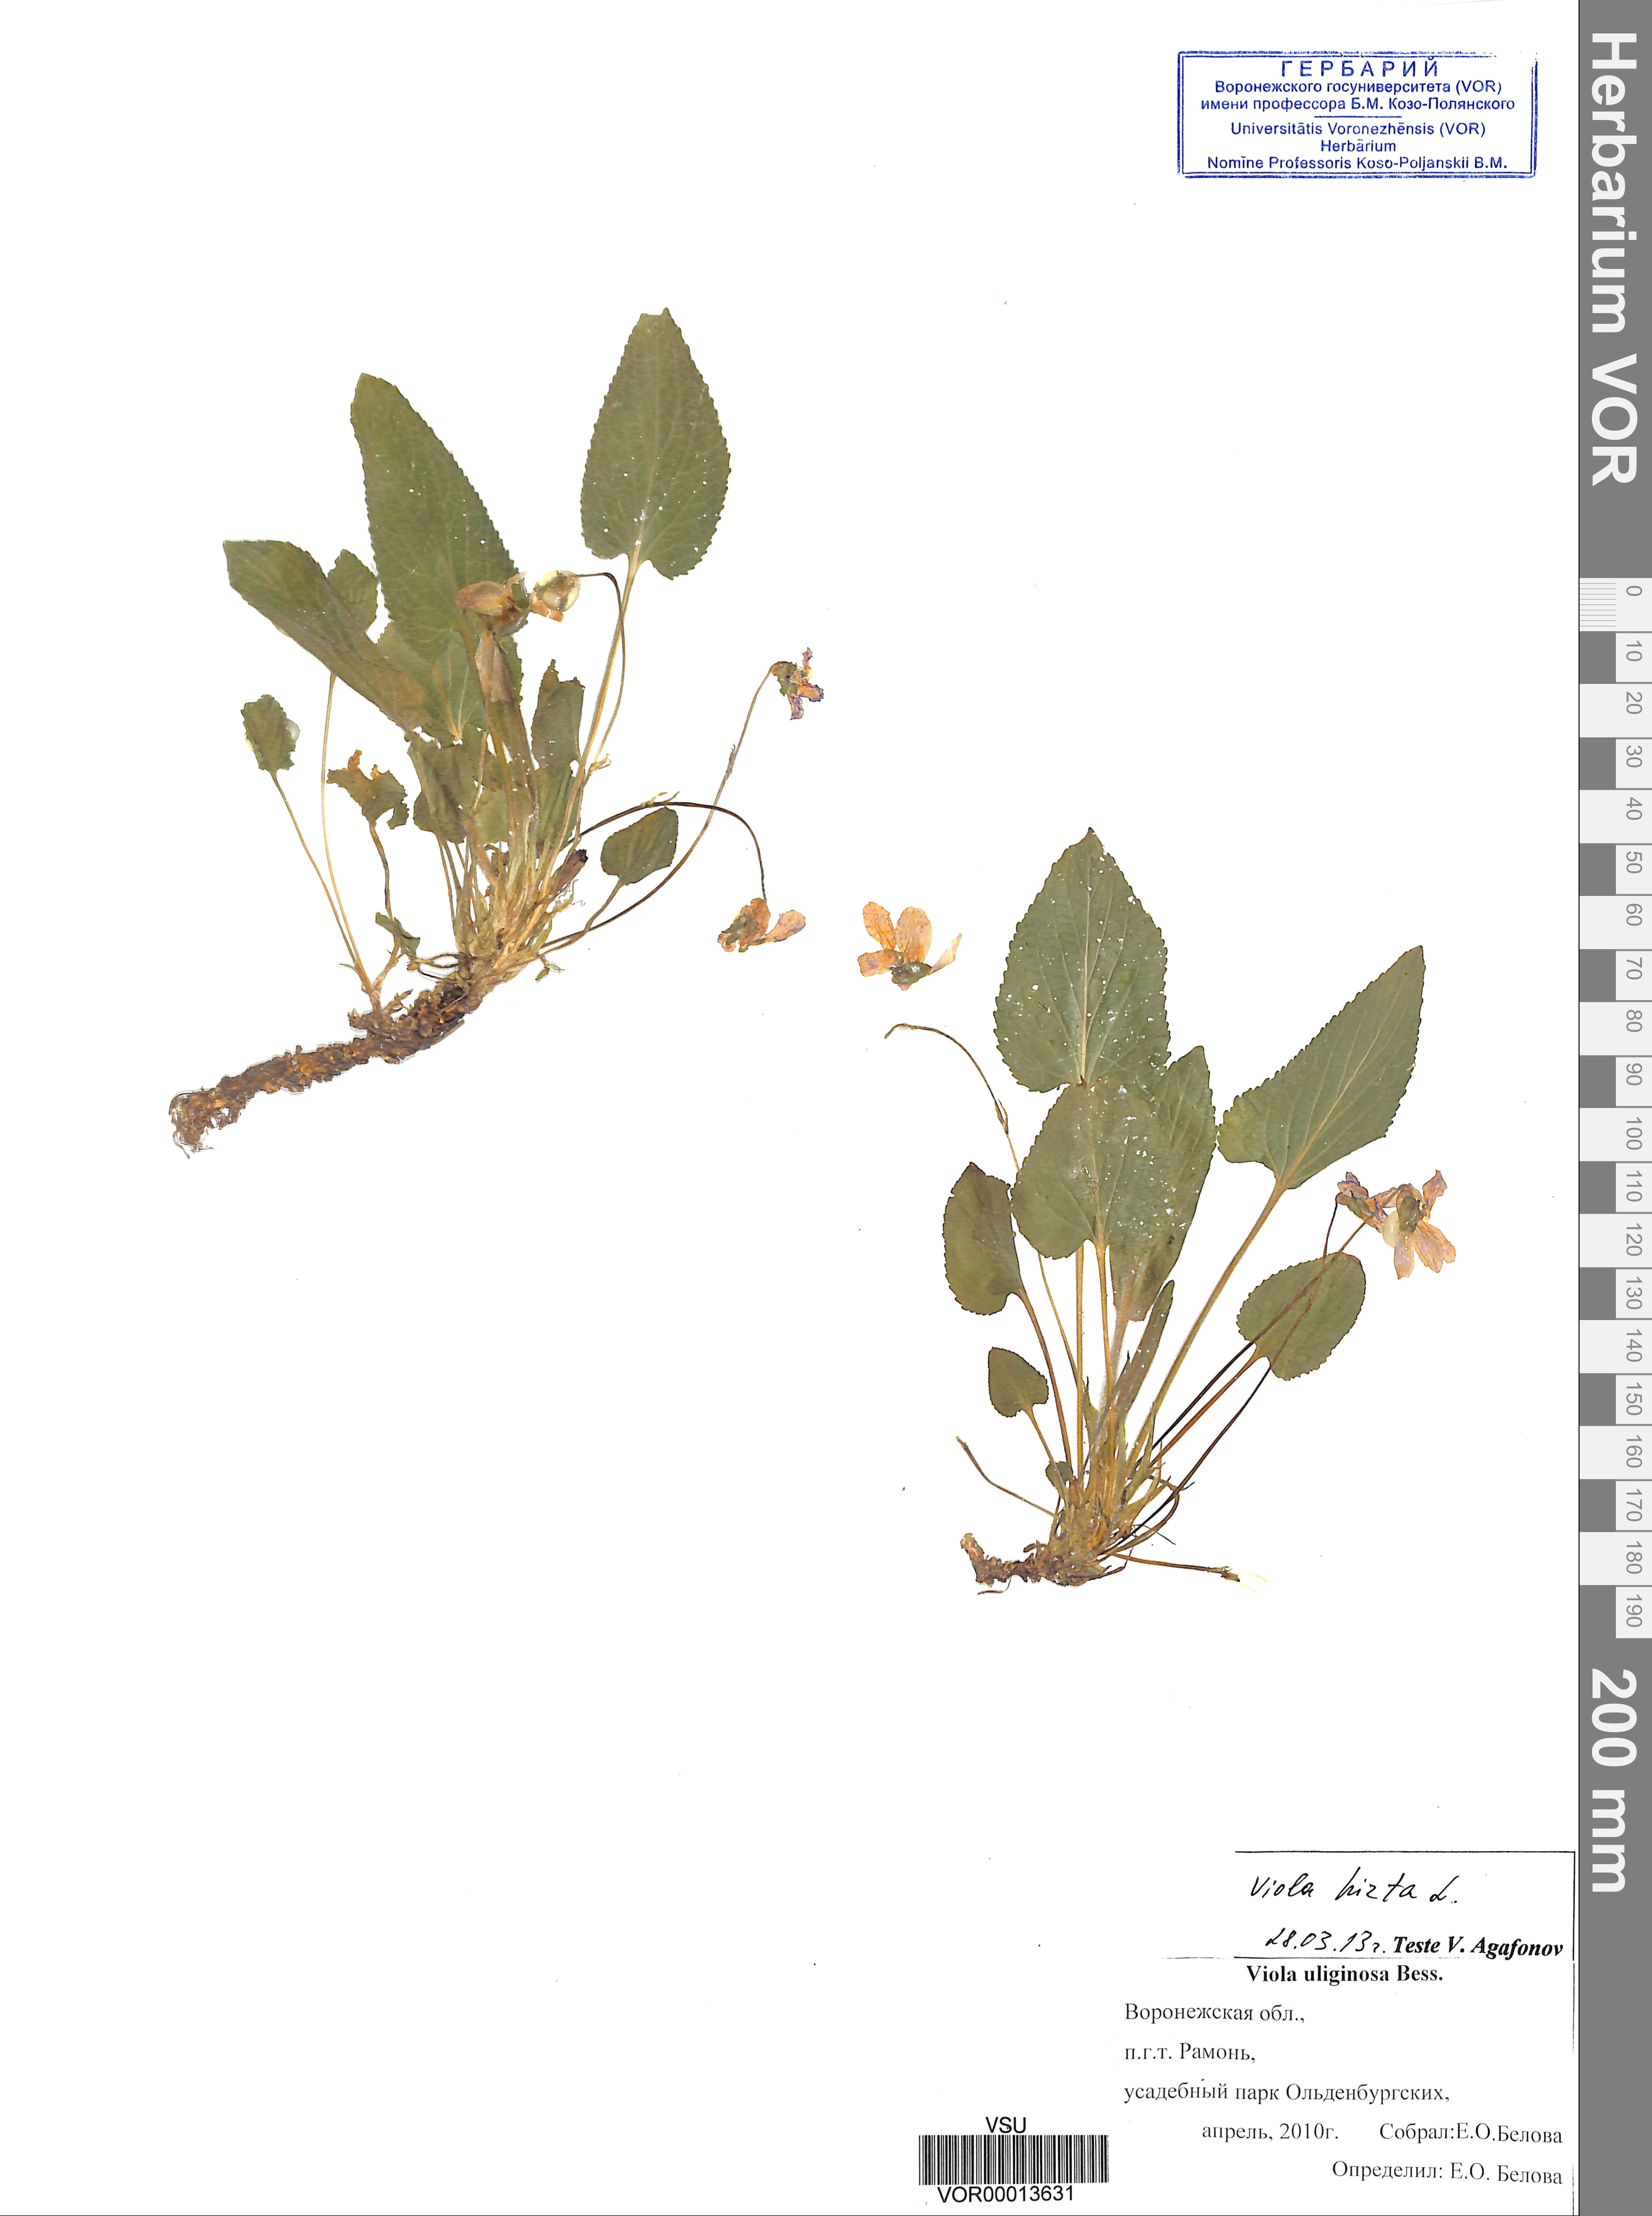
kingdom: Plantae
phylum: Tracheophyta
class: Magnoliopsida
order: Malpighiales
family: Violaceae
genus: Viola
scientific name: Viola hirta
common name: Hairy violet
